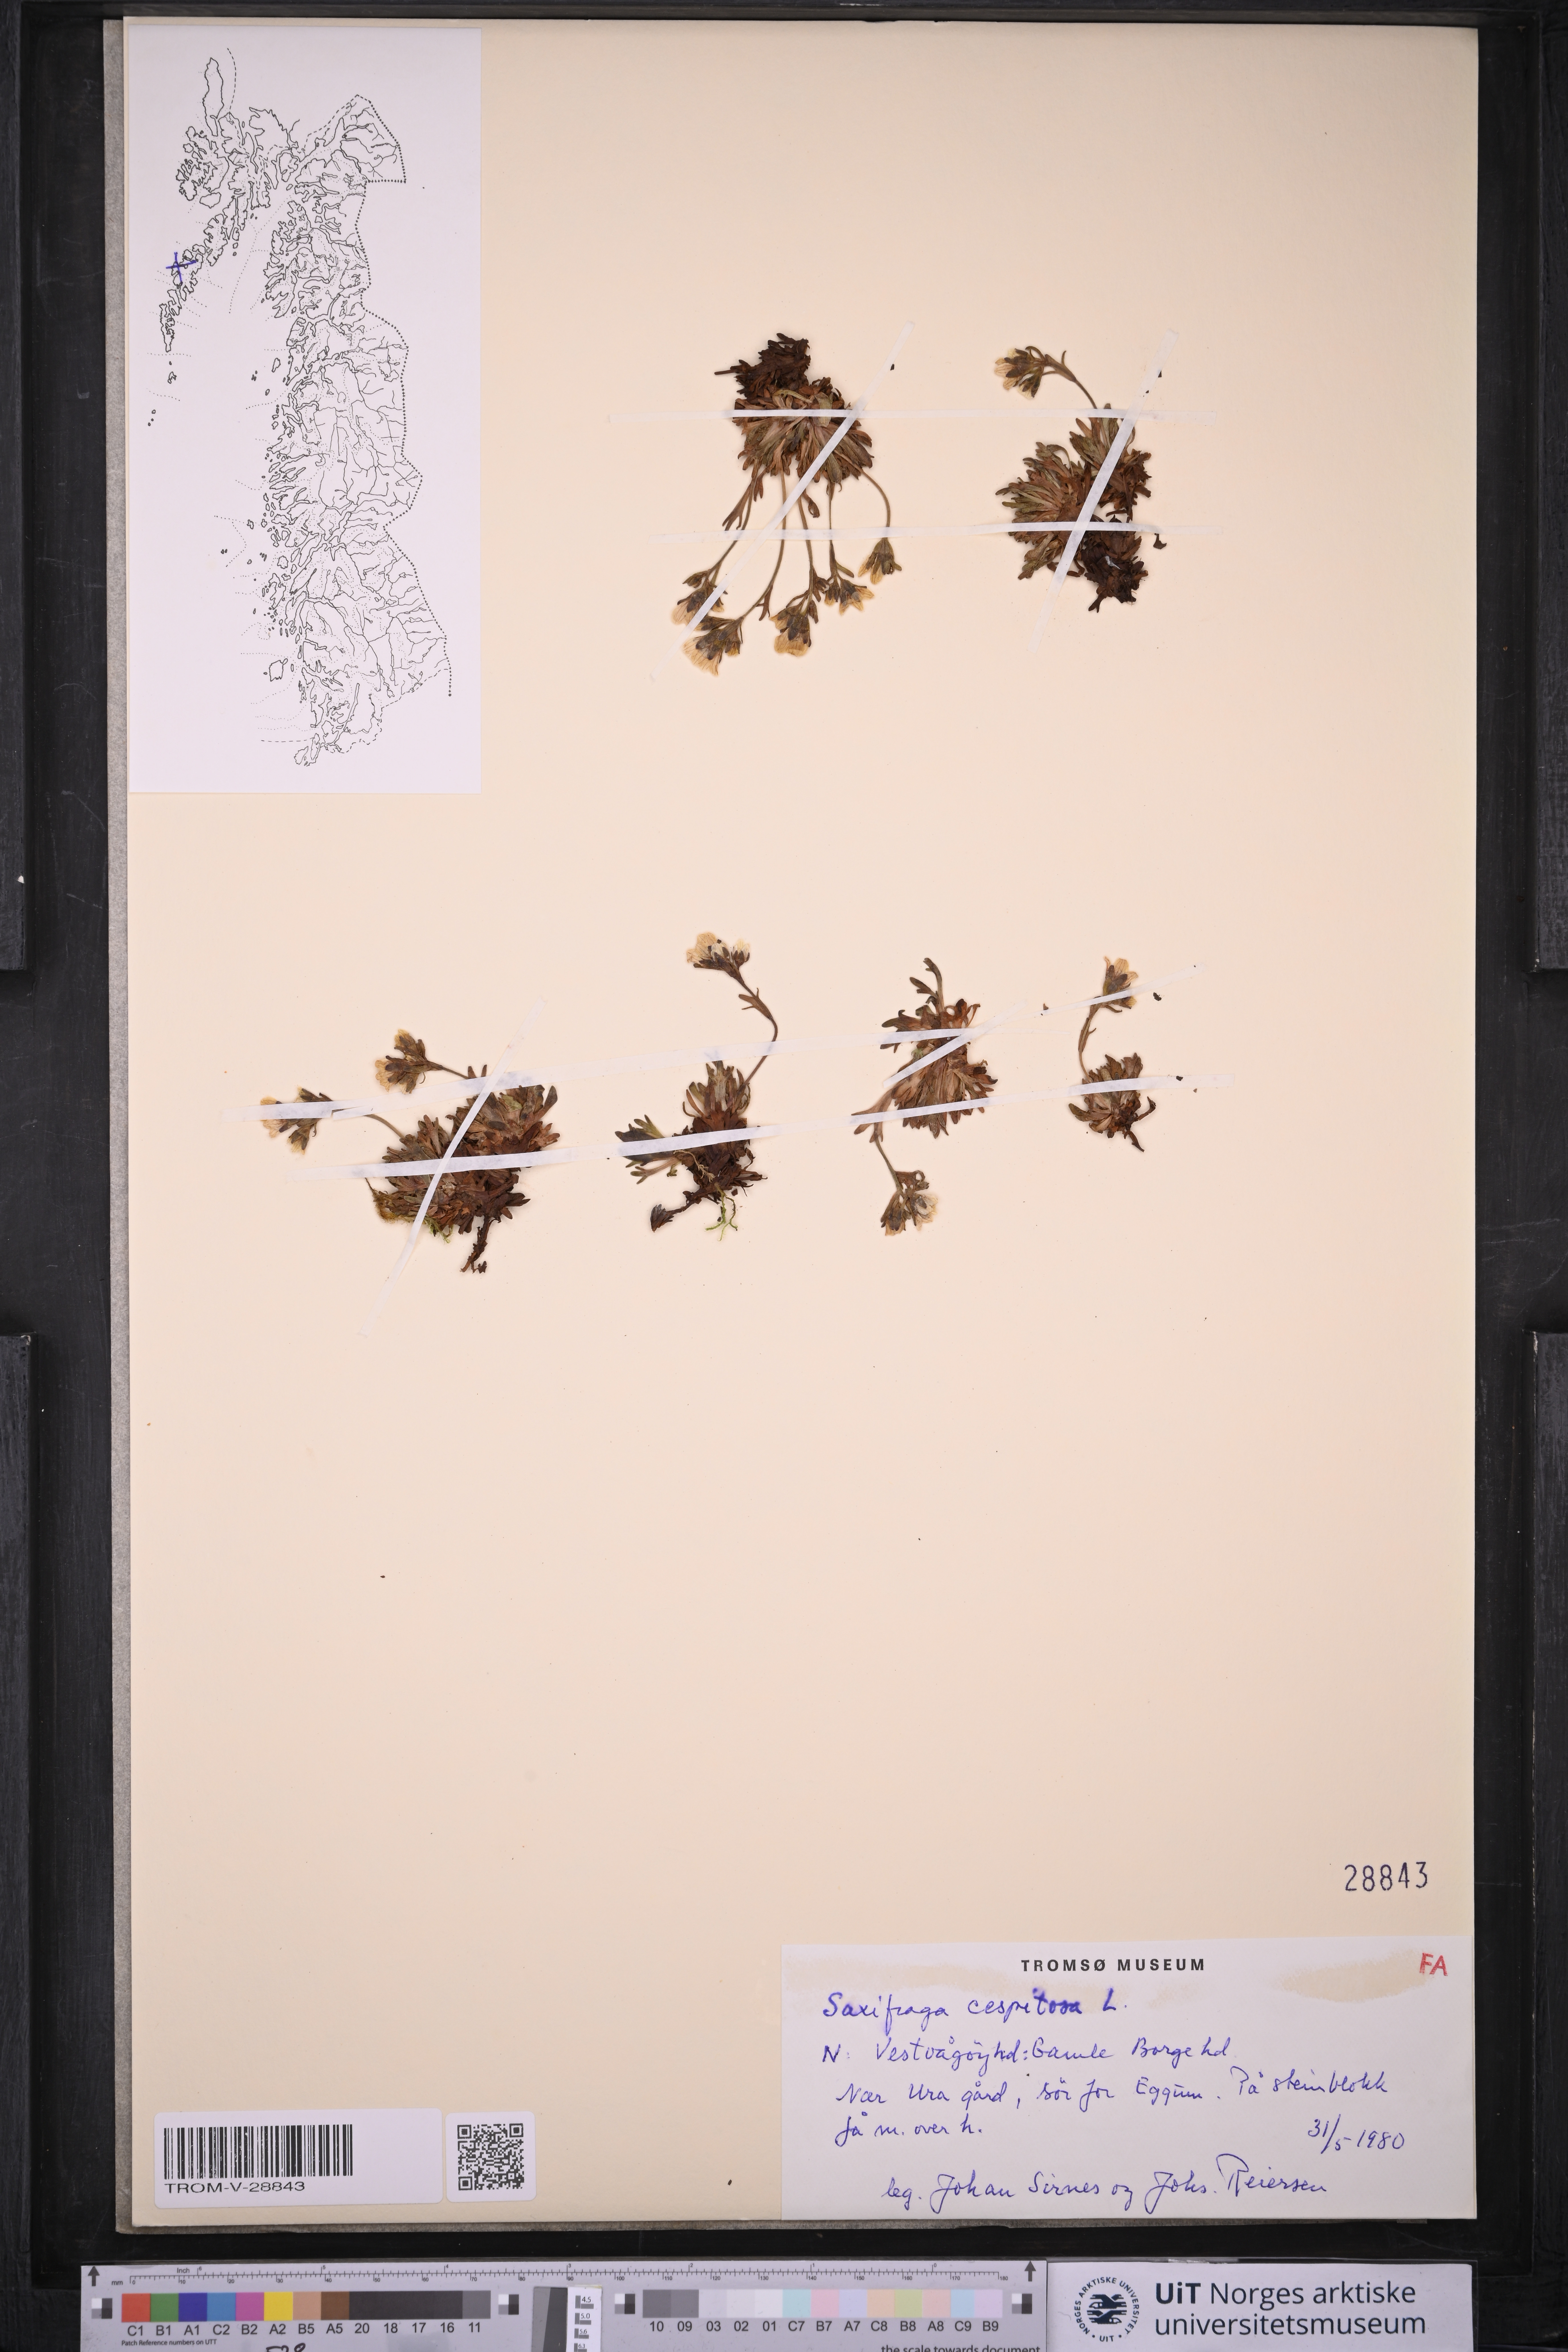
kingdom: Plantae
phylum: Tracheophyta
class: Magnoliopsida
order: Saxifragales
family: Saxifragaceae
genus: Saxifraga
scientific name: Saxifraga cespitosa
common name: Tufted saxifrage
